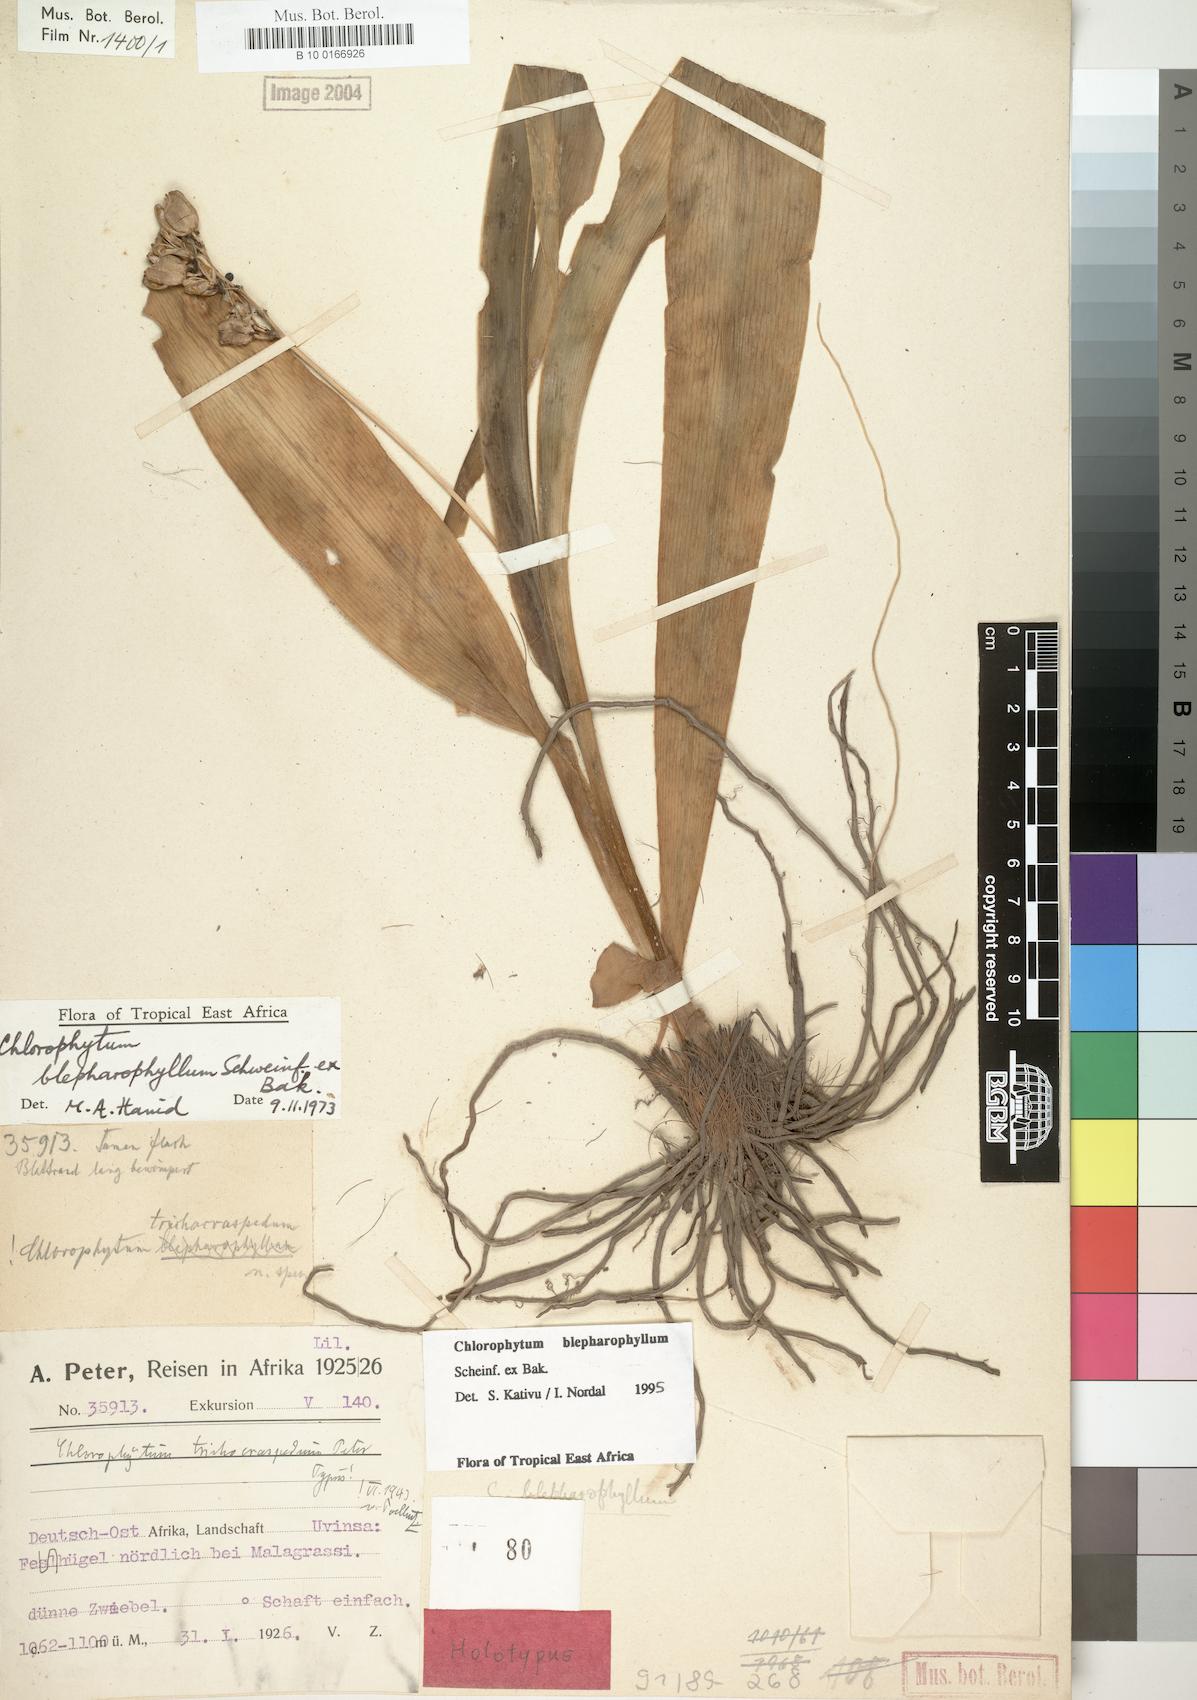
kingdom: Plantae
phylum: Tracheophyta
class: Liliopsida
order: Asparagales
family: Asparagaceae
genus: Chlorophytum
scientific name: Chlorophytum blepharophyllum
